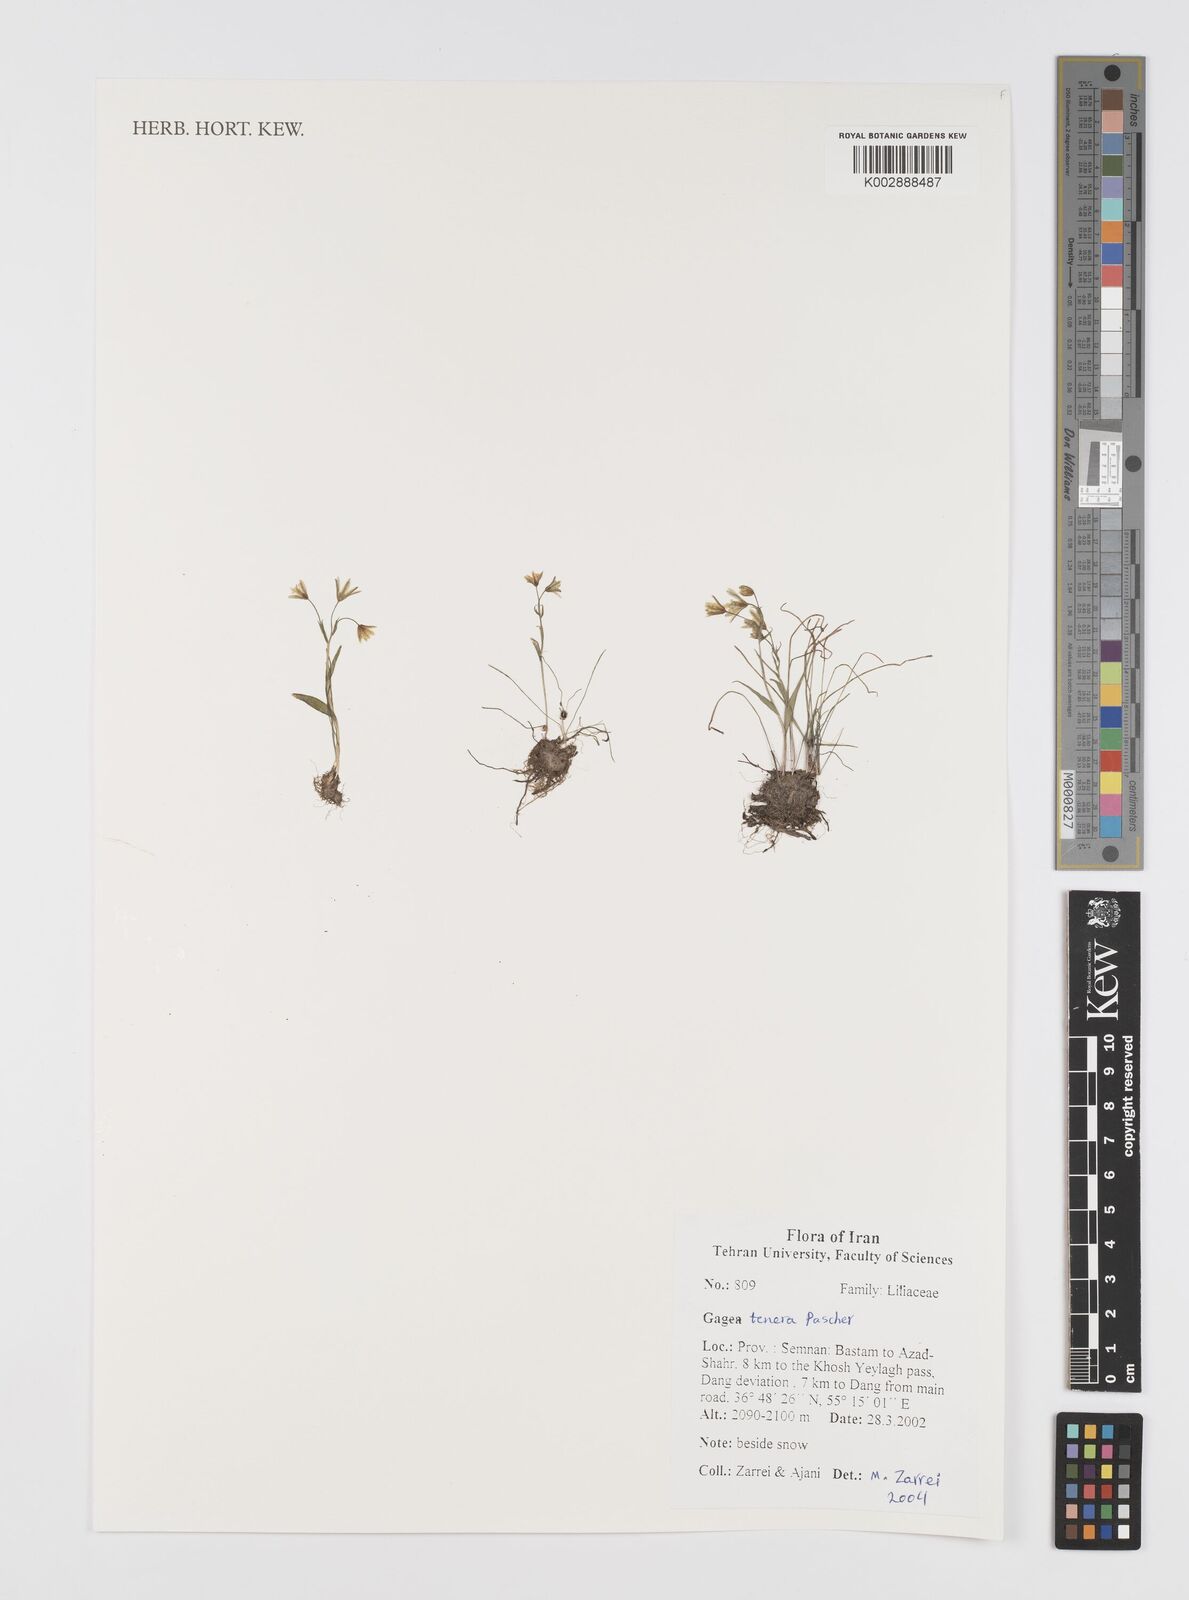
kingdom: Plantae
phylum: Tracheophyta
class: Liliopsida
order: Liliales
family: Liliaceae
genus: Gagea
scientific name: Gagea tenera
